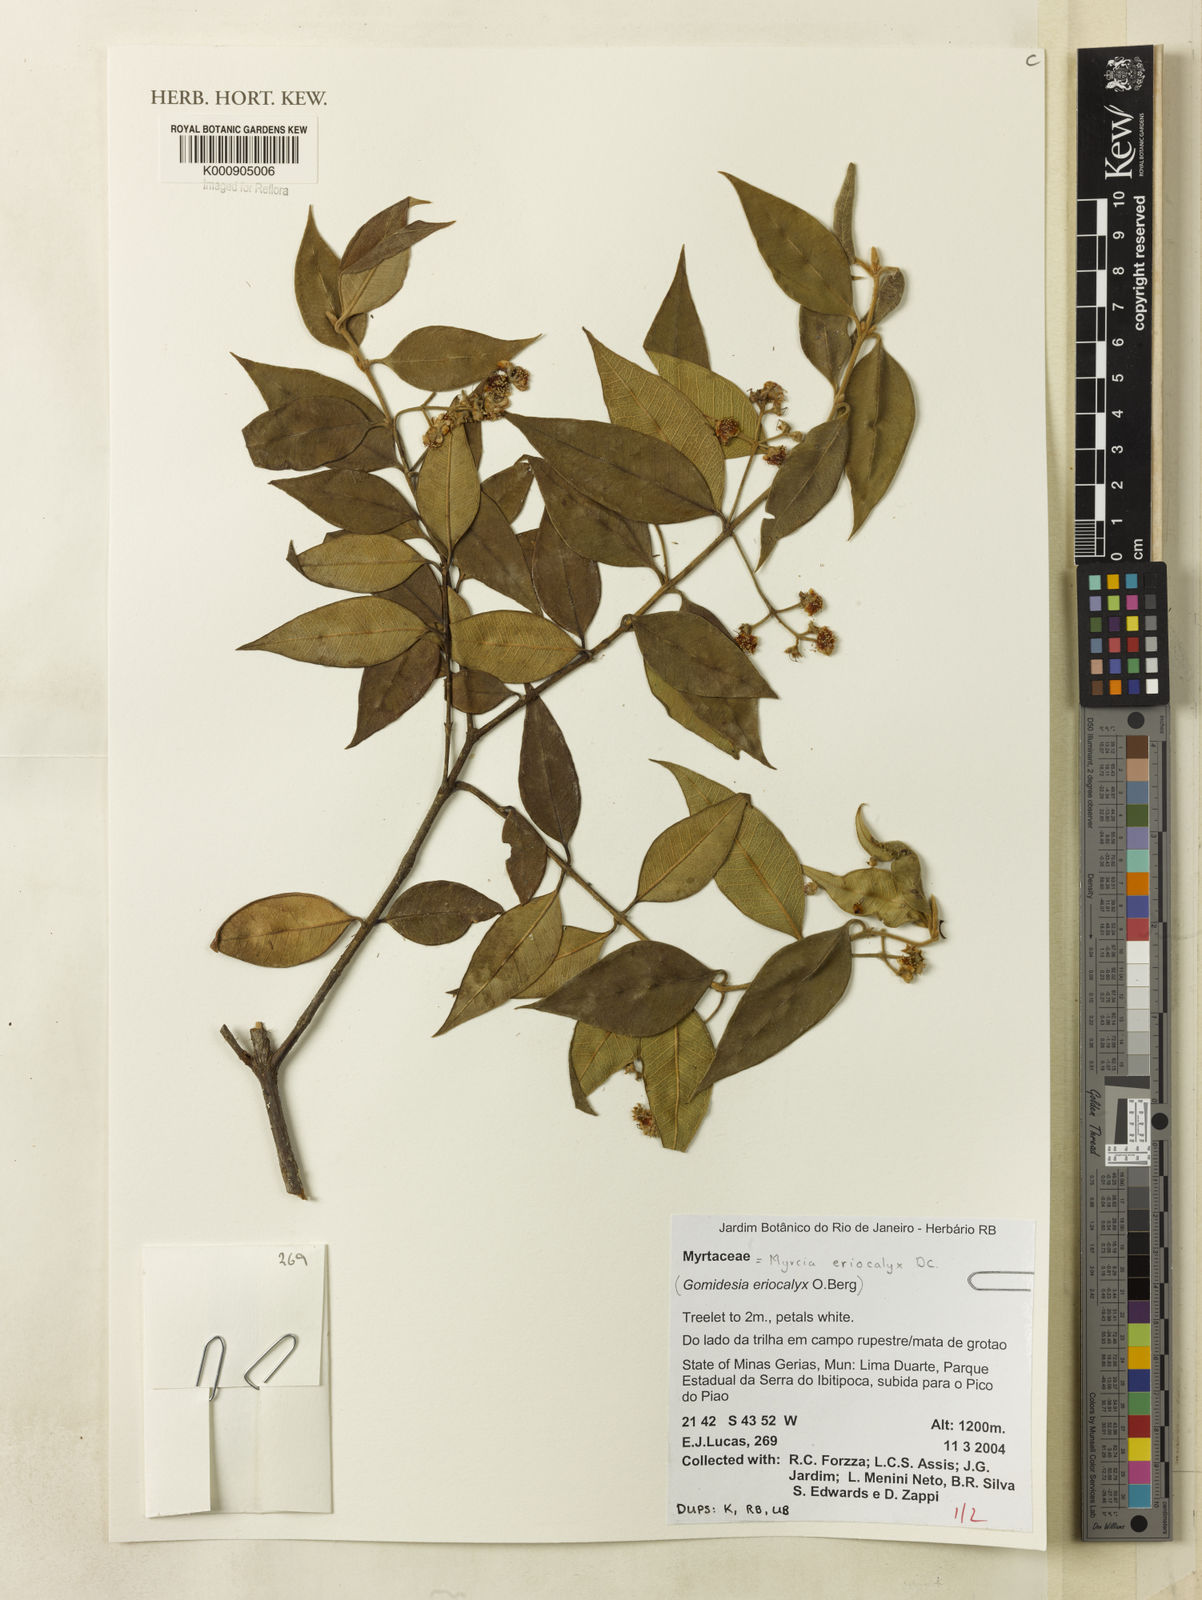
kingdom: Plantae
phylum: Tracheophyta
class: Magnoliopsida
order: Myrtales
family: Myrtaceae
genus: Myrcia
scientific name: Myrcia eriocalyx
